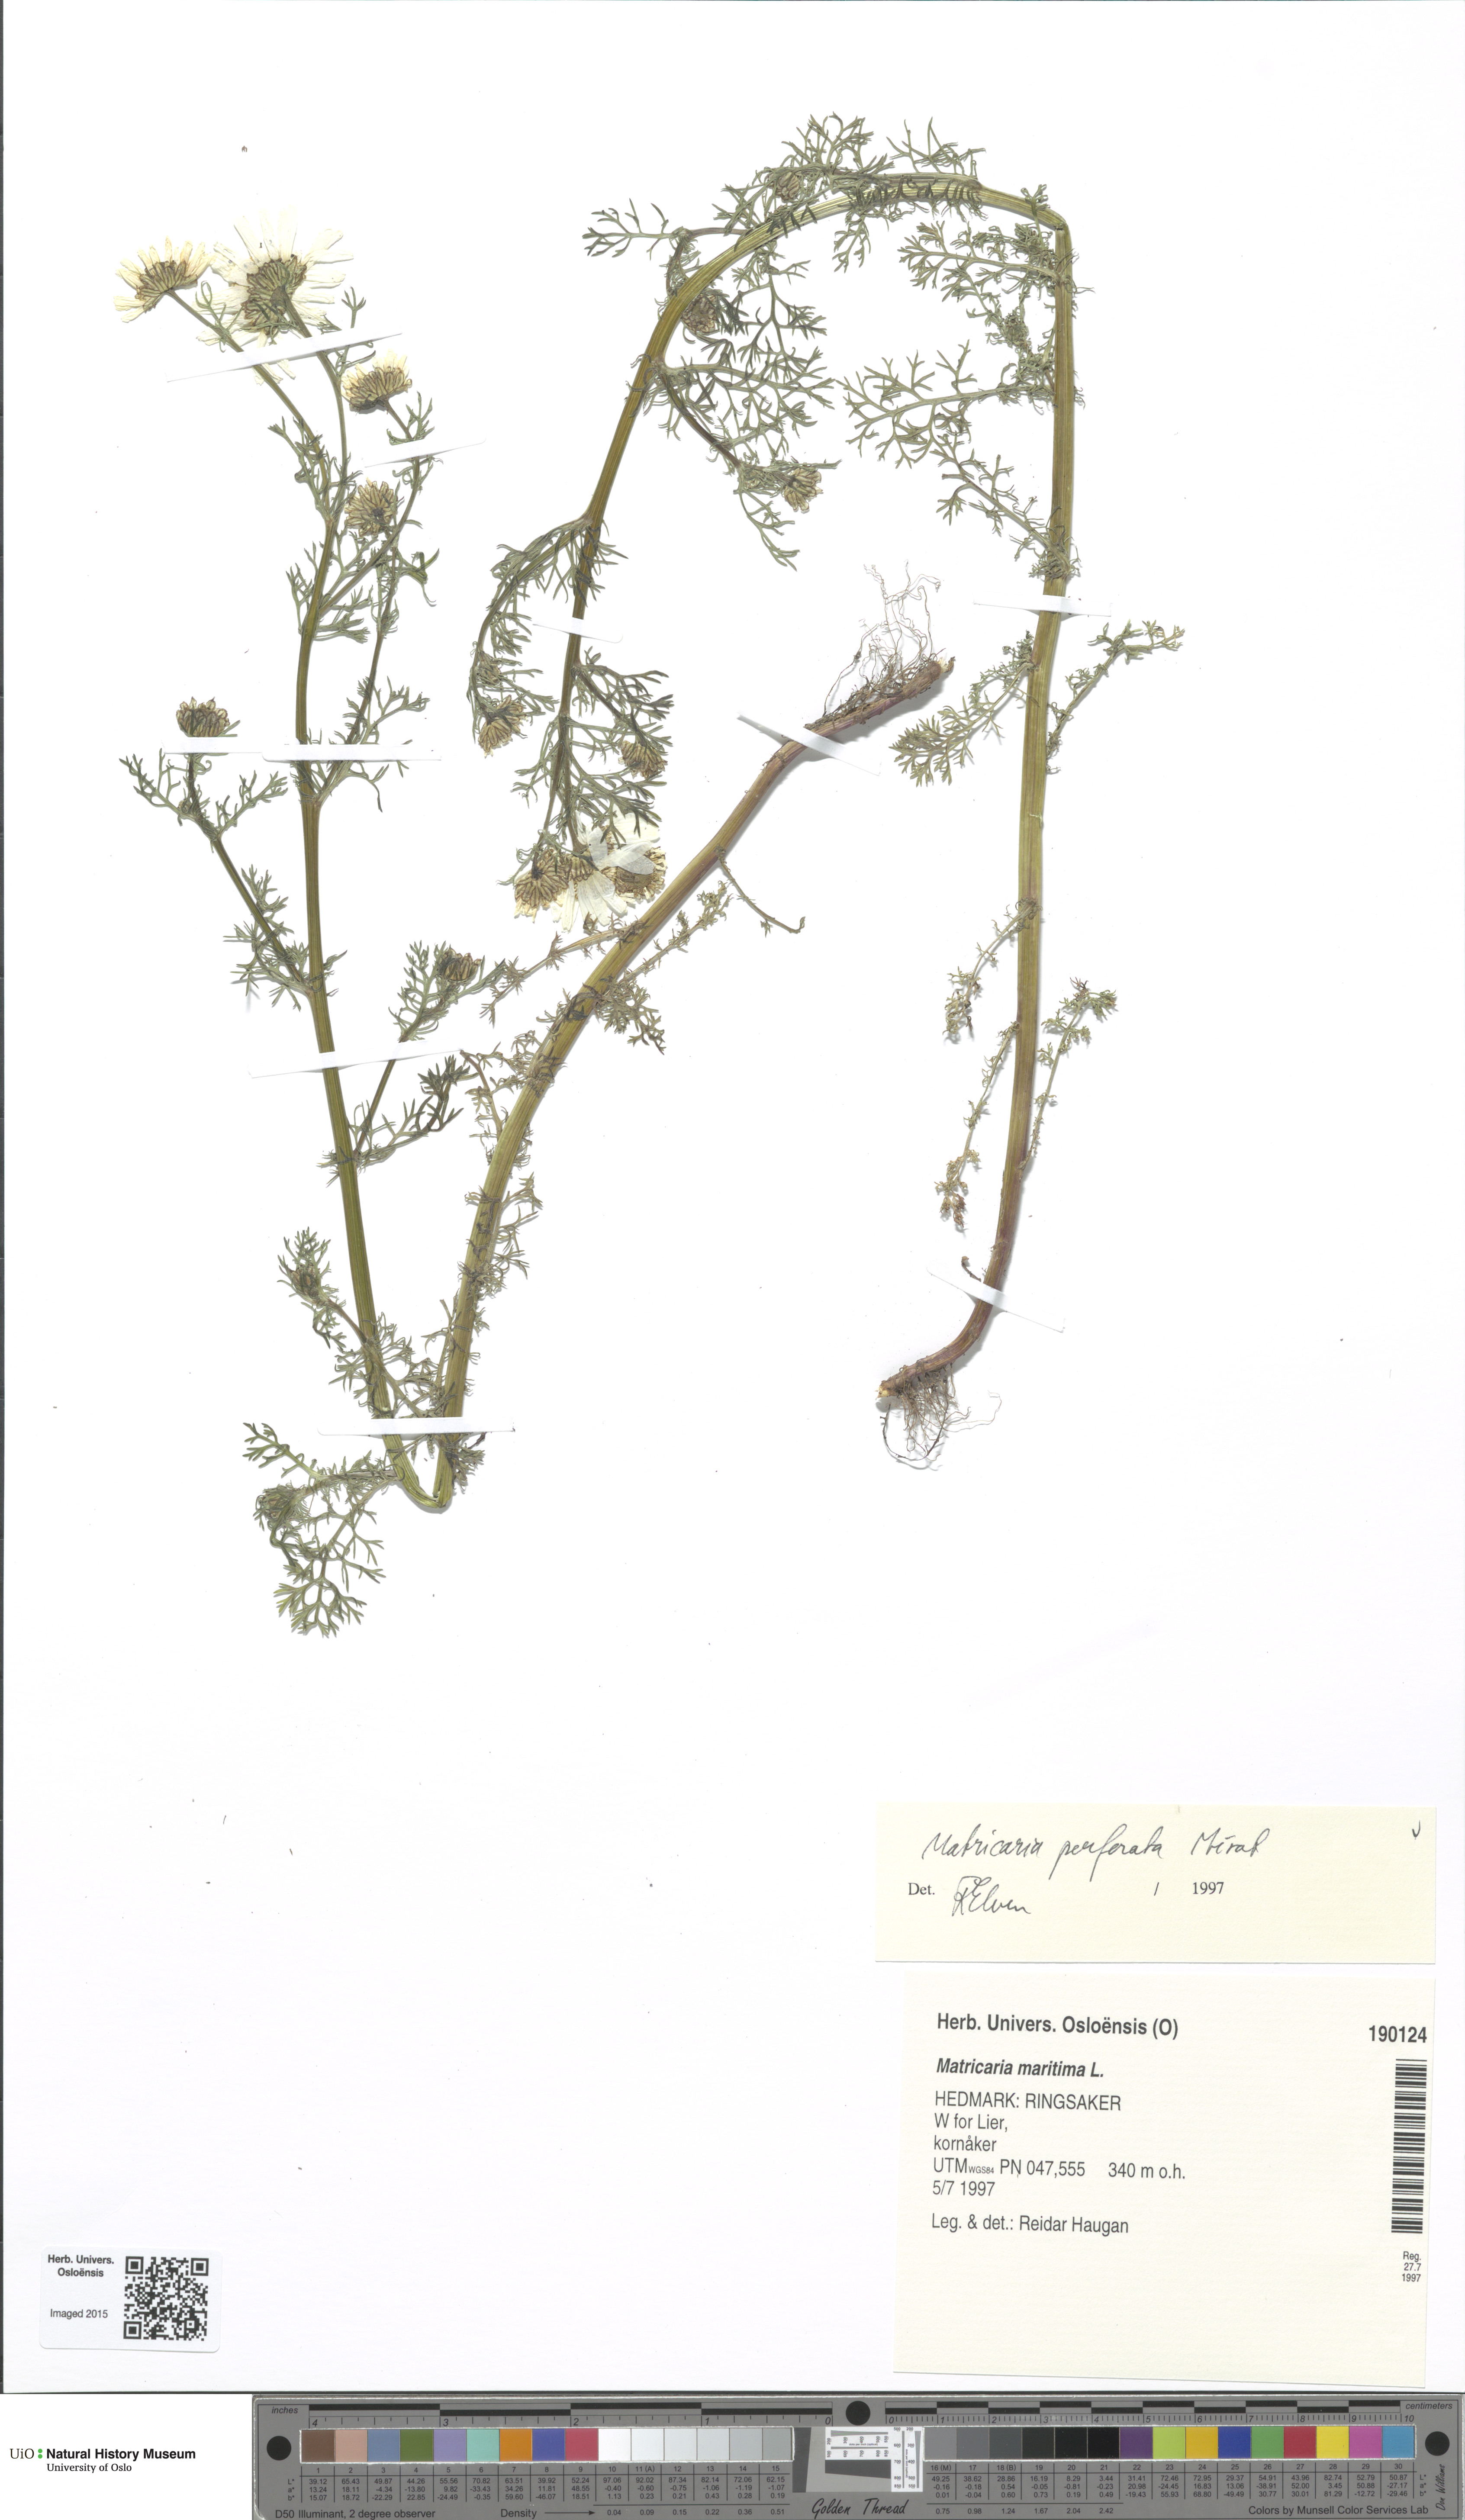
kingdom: Plantae
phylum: Tracheophyta
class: Magnoliopsida
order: Asterales
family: Asteraceae
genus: Tripleurospermum
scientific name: Tripleurospermum inodorum
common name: Scentless mayweed
